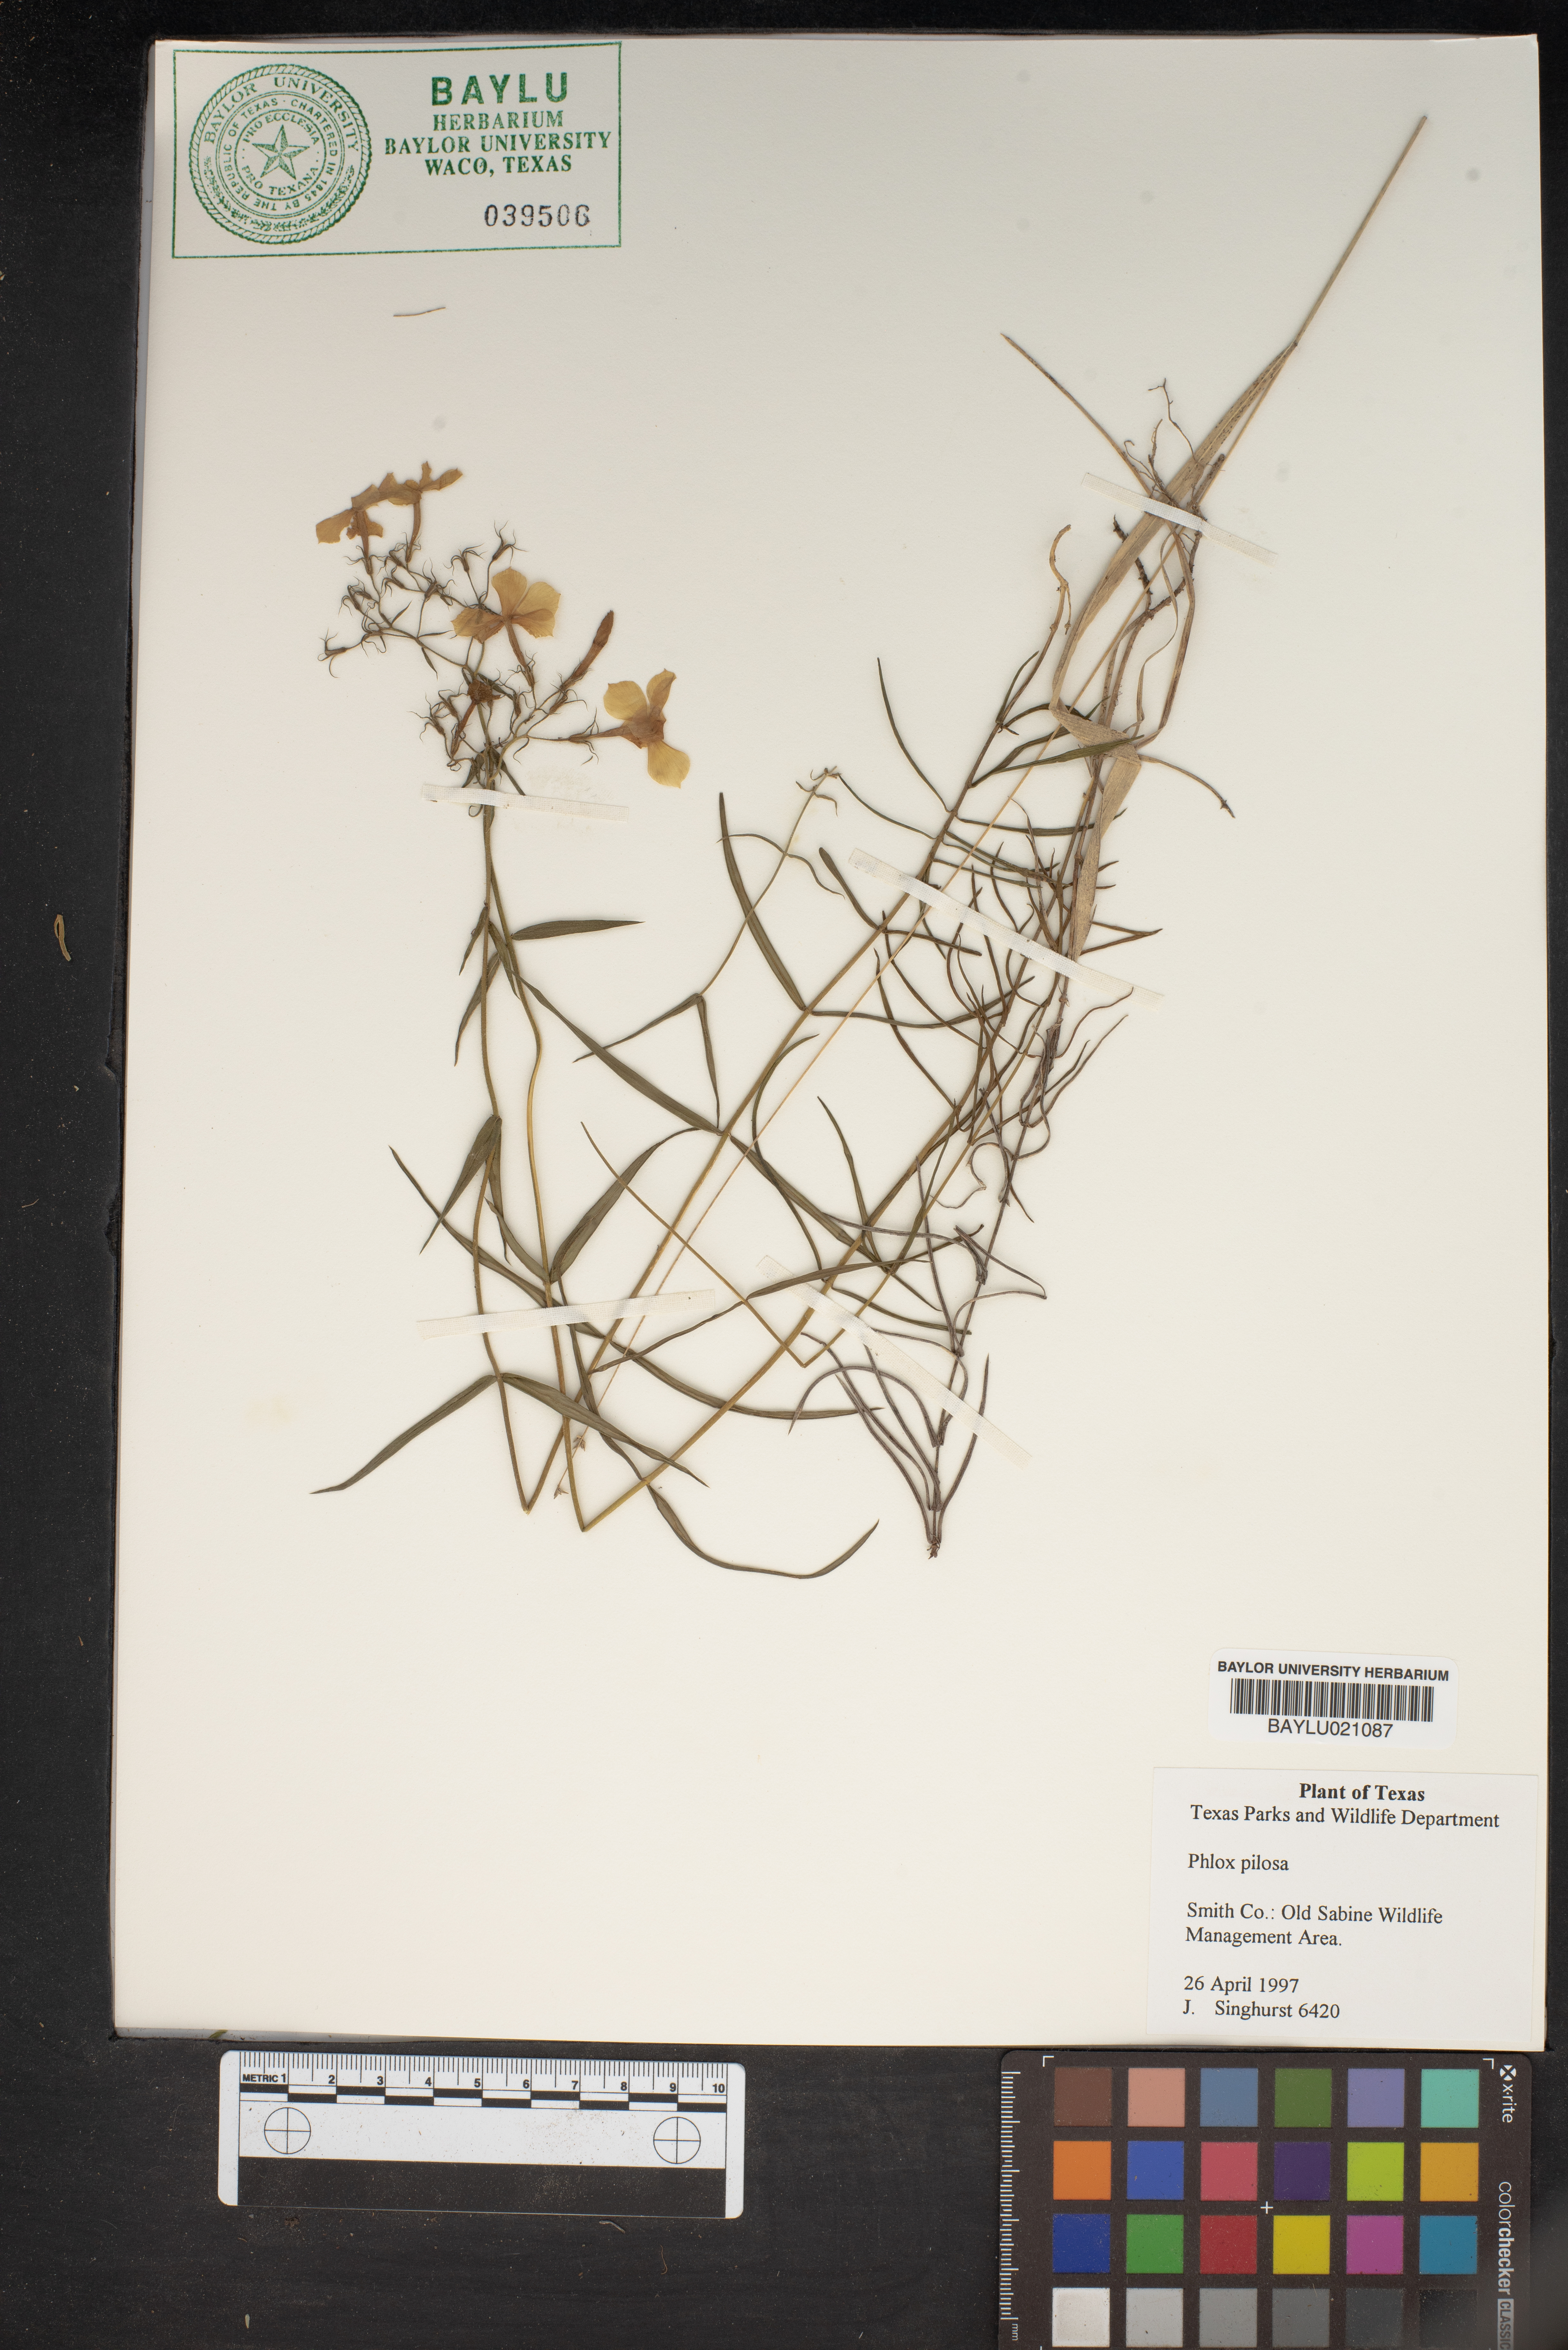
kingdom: Plantae
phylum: Tracheophyta
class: Magnoliopsida
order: Ericales
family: Polemoniaceae
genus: Phlox
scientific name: Phlox pilosa
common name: Prairie phlox
